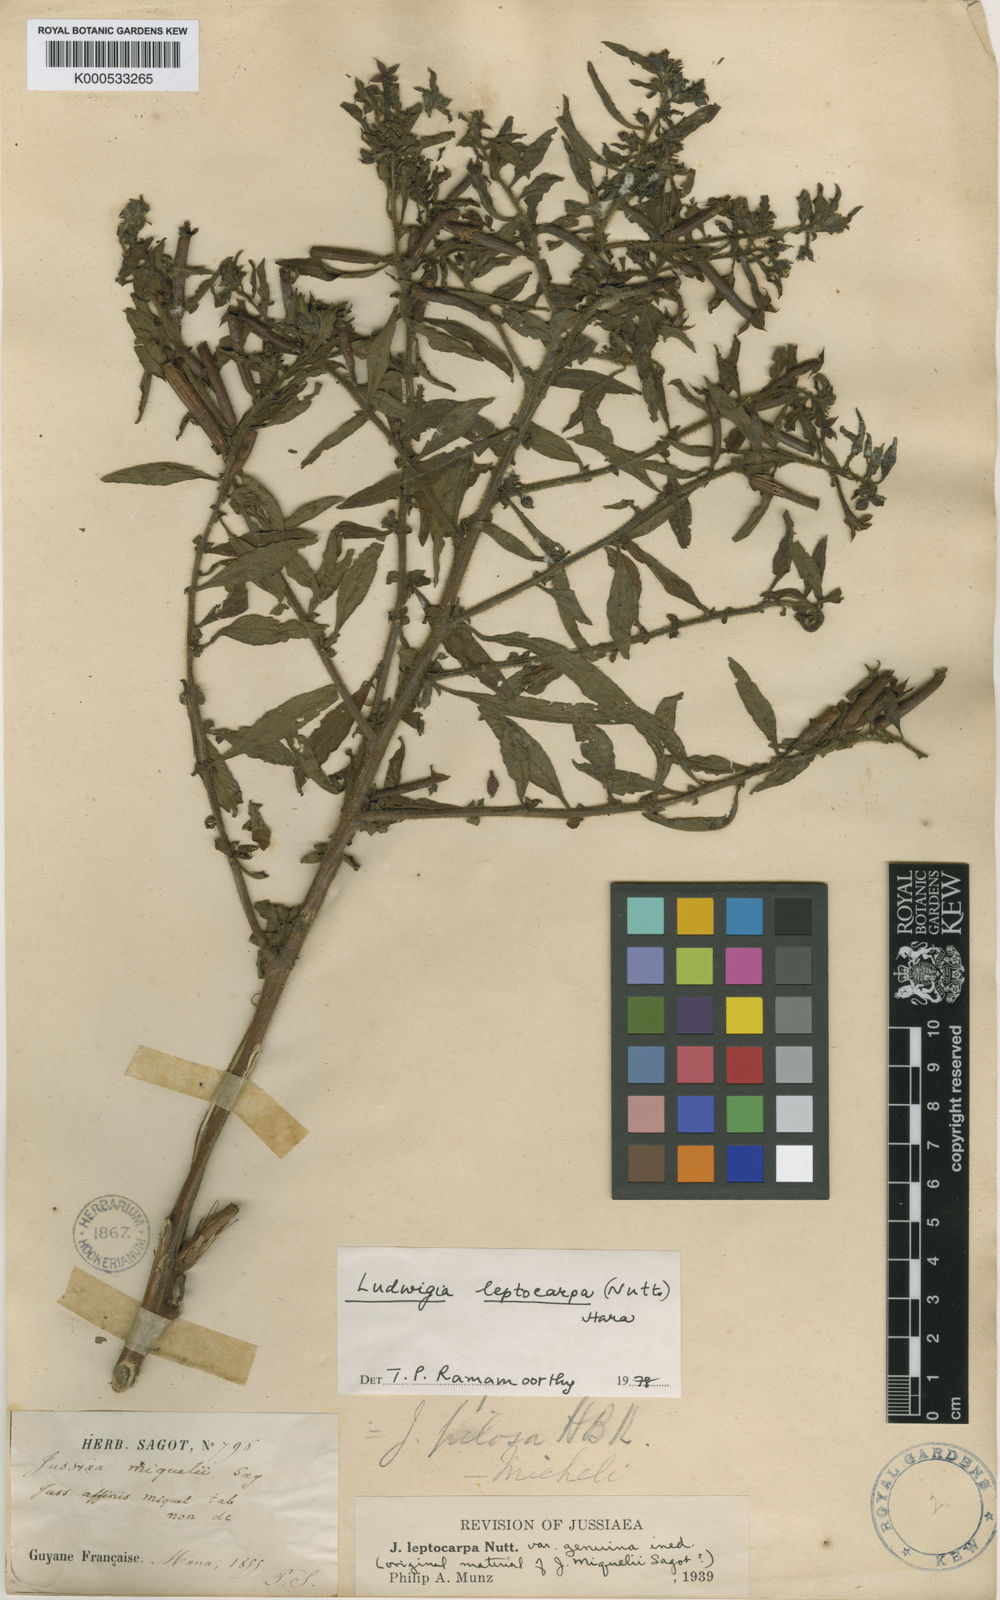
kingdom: Plantae
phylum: Tracheophyta
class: Magnoliopsida
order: Myrtales
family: Onagraceae
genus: Ludwigia
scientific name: Ludwigia leptocarpa
